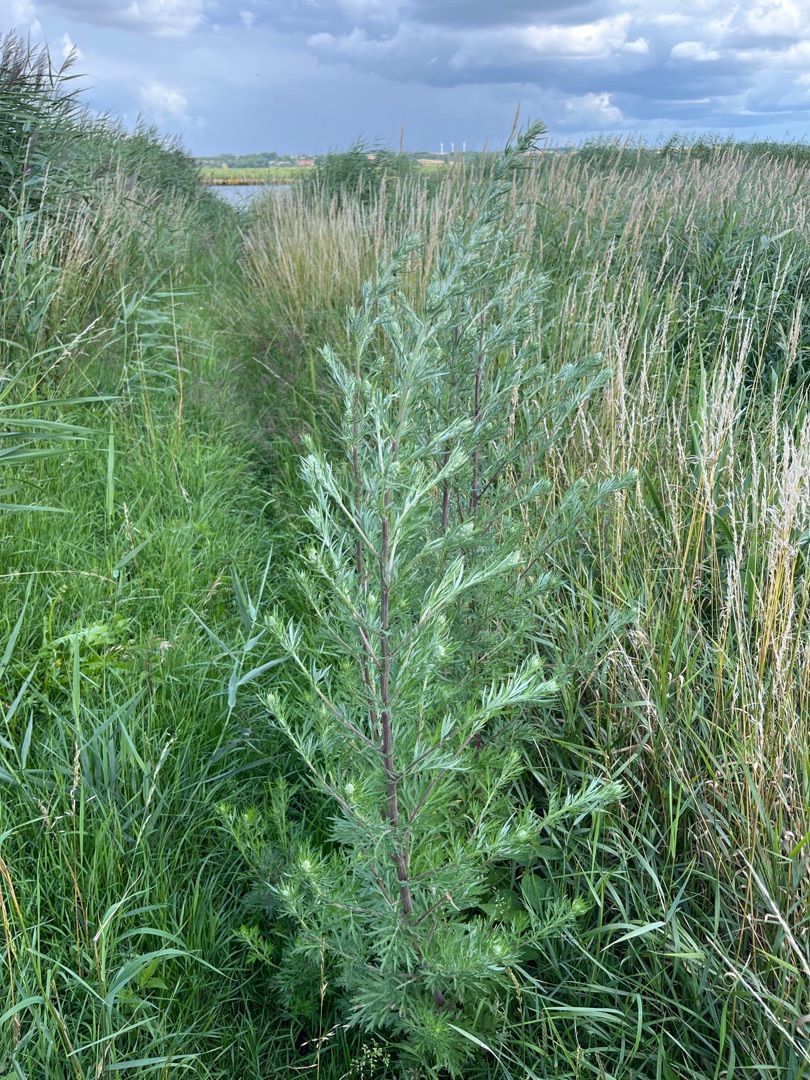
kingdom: Plantae
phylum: Tracheophyta
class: Magnoliopsida
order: Asterales
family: Asteraceae
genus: Artemisia
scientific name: Artemisia vulgaris
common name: Grå-bynke
